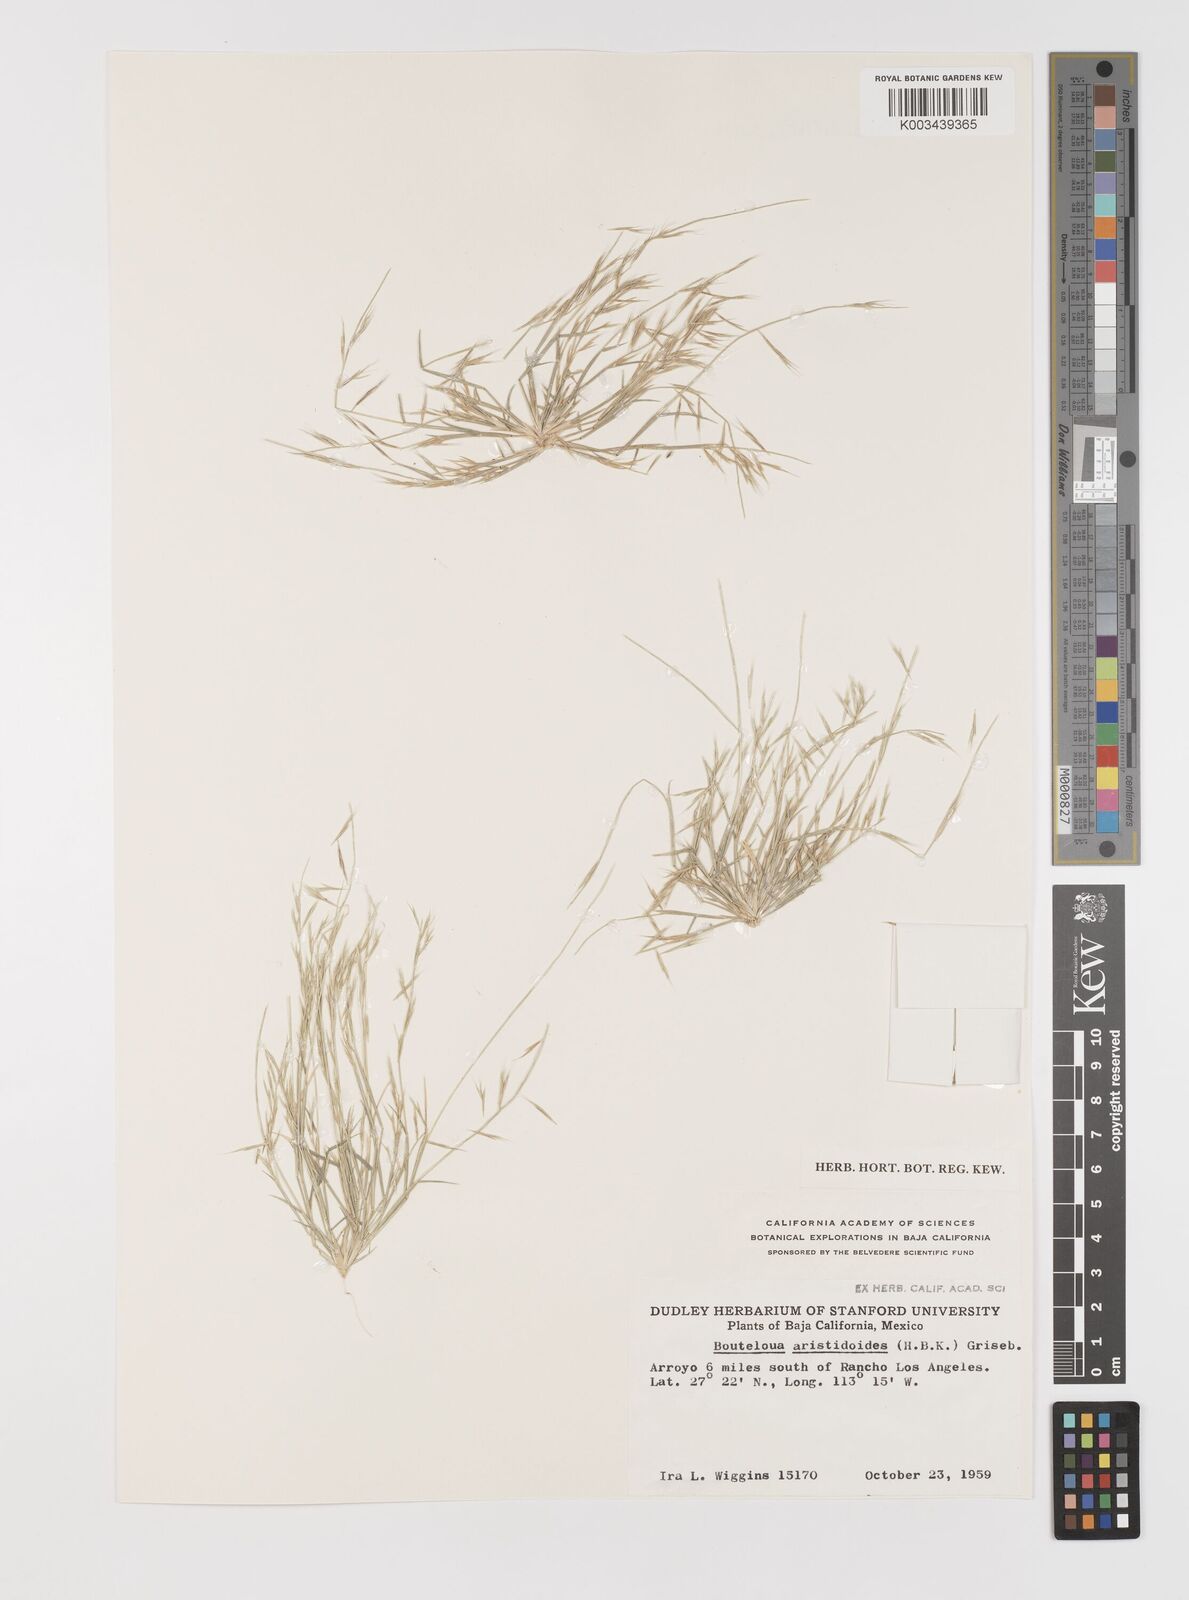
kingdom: Plantae
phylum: Tracheophyta
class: Liliopsida
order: Poales
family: Poaceae
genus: Bouteloua
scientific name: Bouteloua aristidoides
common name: Needle grama
